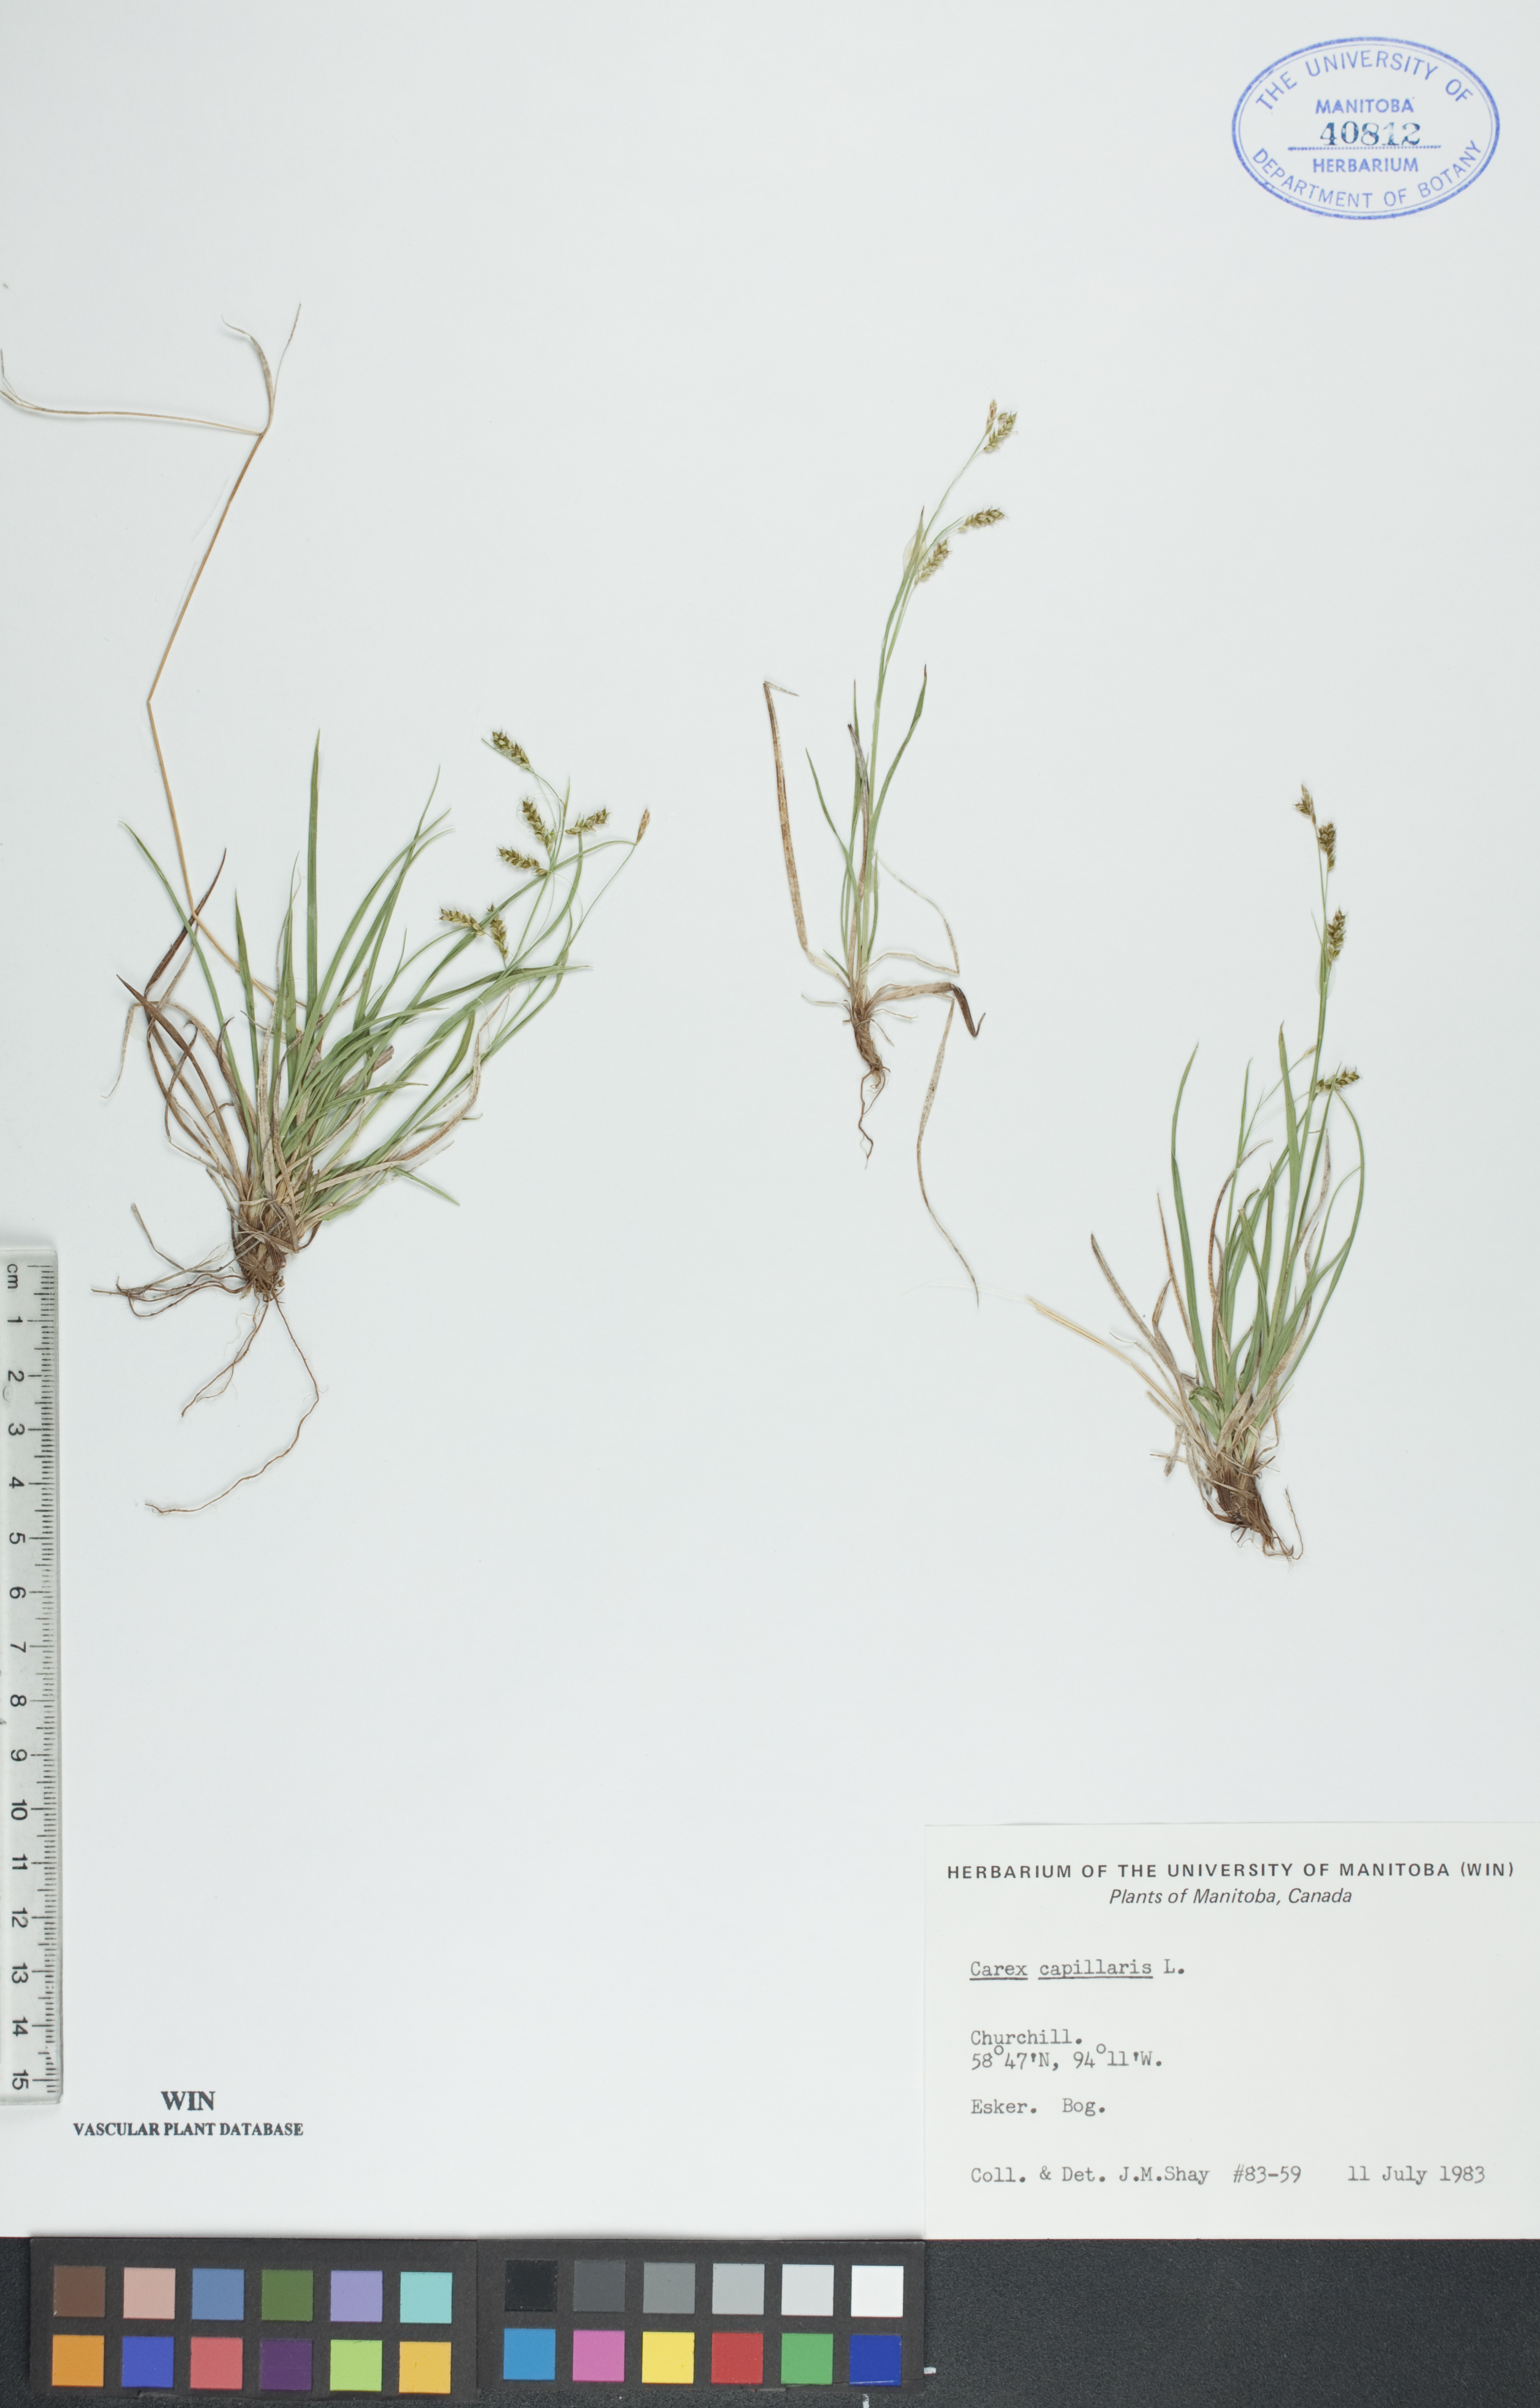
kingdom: Plantae
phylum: Tracheophyta
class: Liliopsida
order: Poales
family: Cyperaceae
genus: Carex
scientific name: Carex capillaris
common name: Hair sedge
